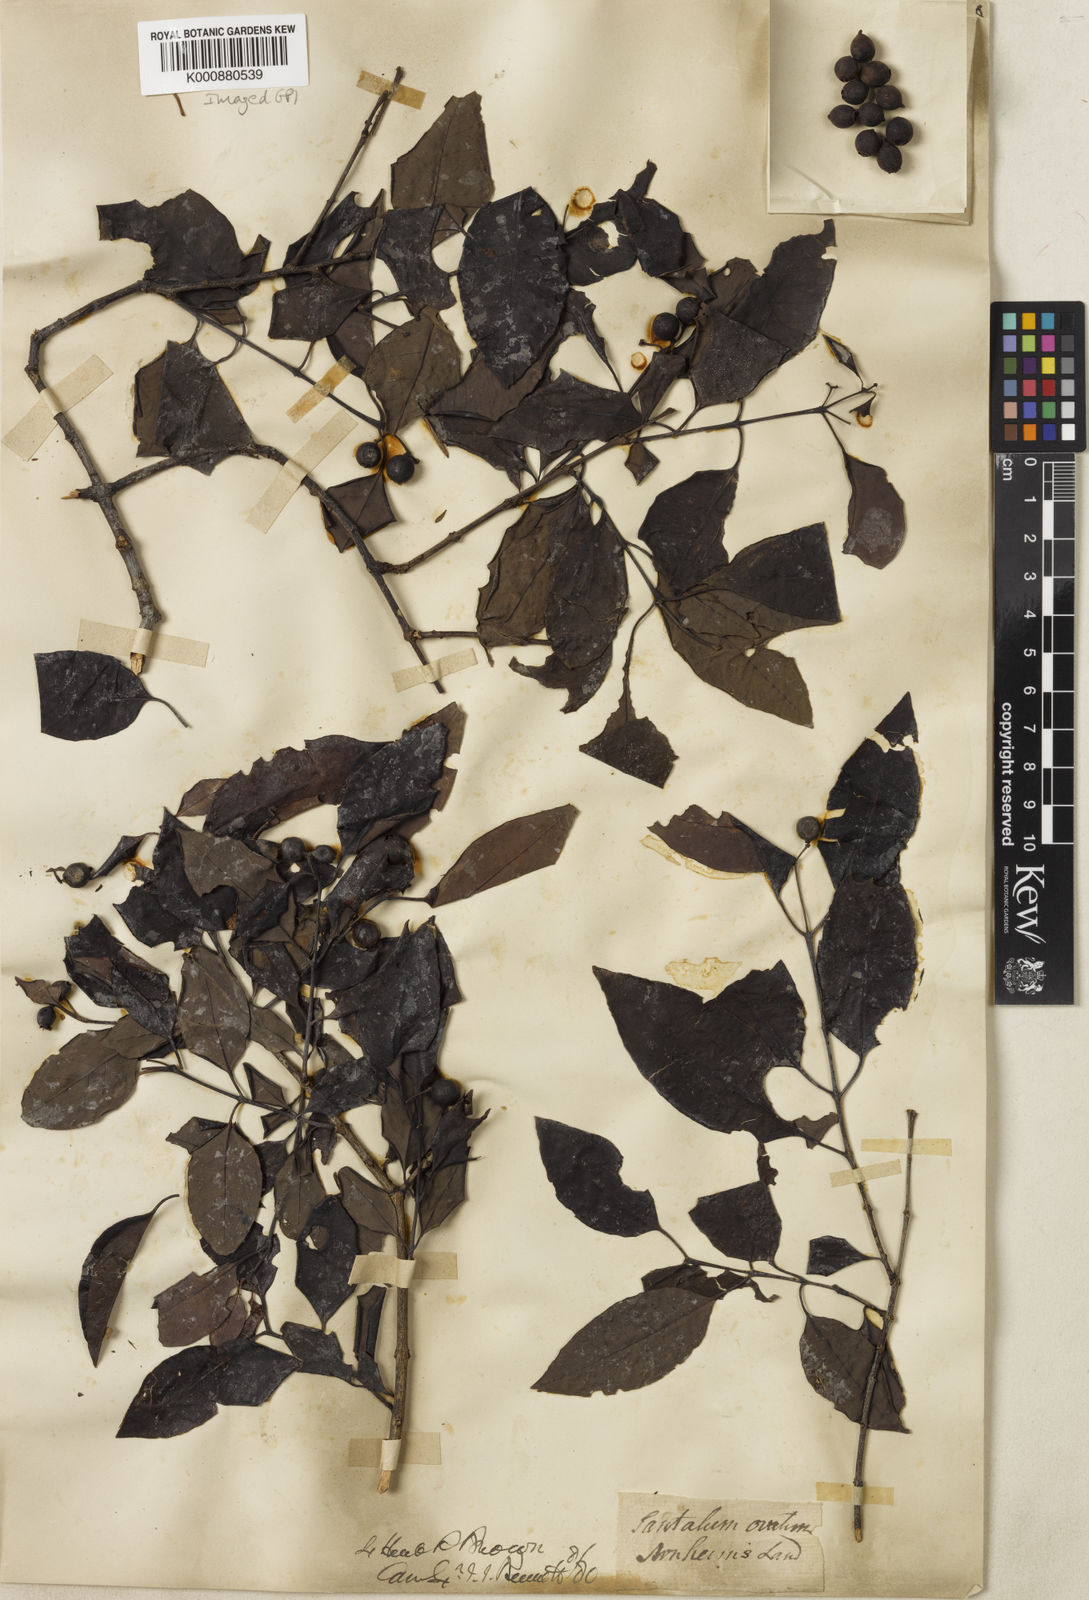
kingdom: Plantae
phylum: Tracheophyta
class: Magnoliopsida
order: Santalales
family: Santalaceae
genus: Santalum
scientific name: Santalum album
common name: Indian sandalwood
